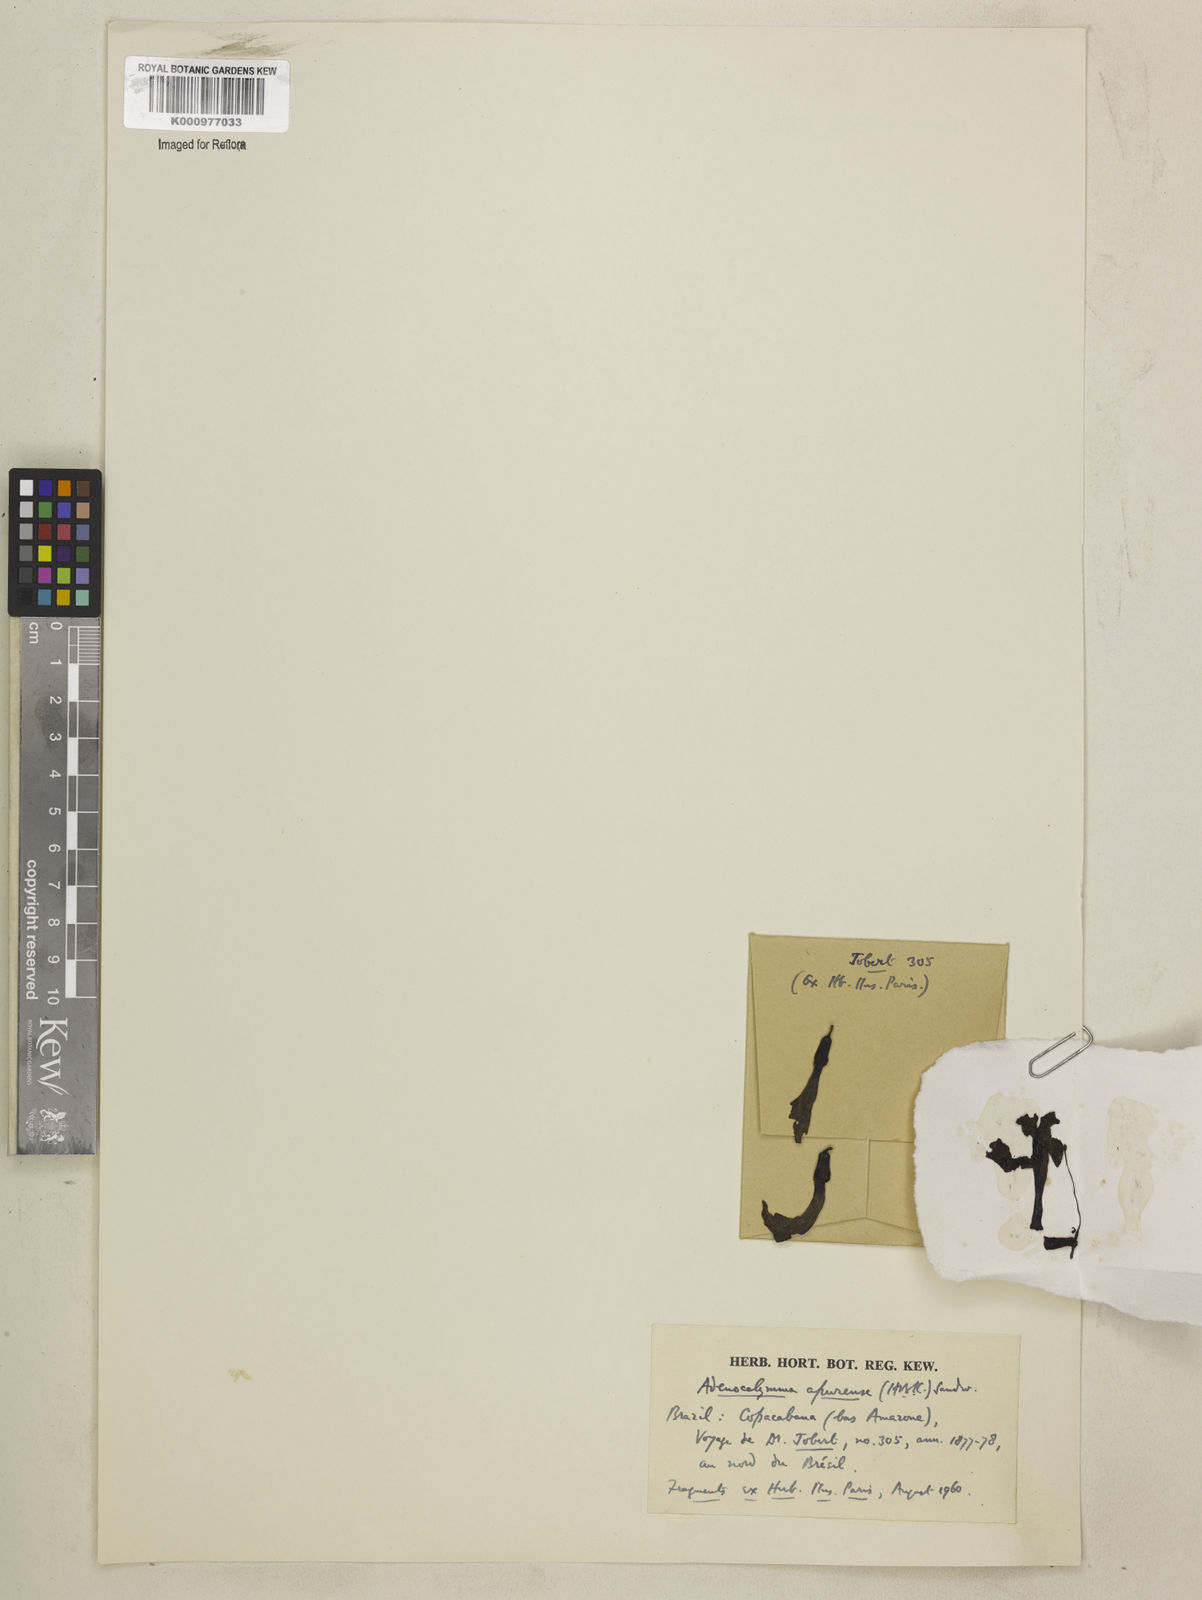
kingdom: Plantae
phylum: Tracheophyta
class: Magnoliopsida
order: Lamiales
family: Bignoniaceae
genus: Adenocalymma
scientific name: Adenocalymma apurense
